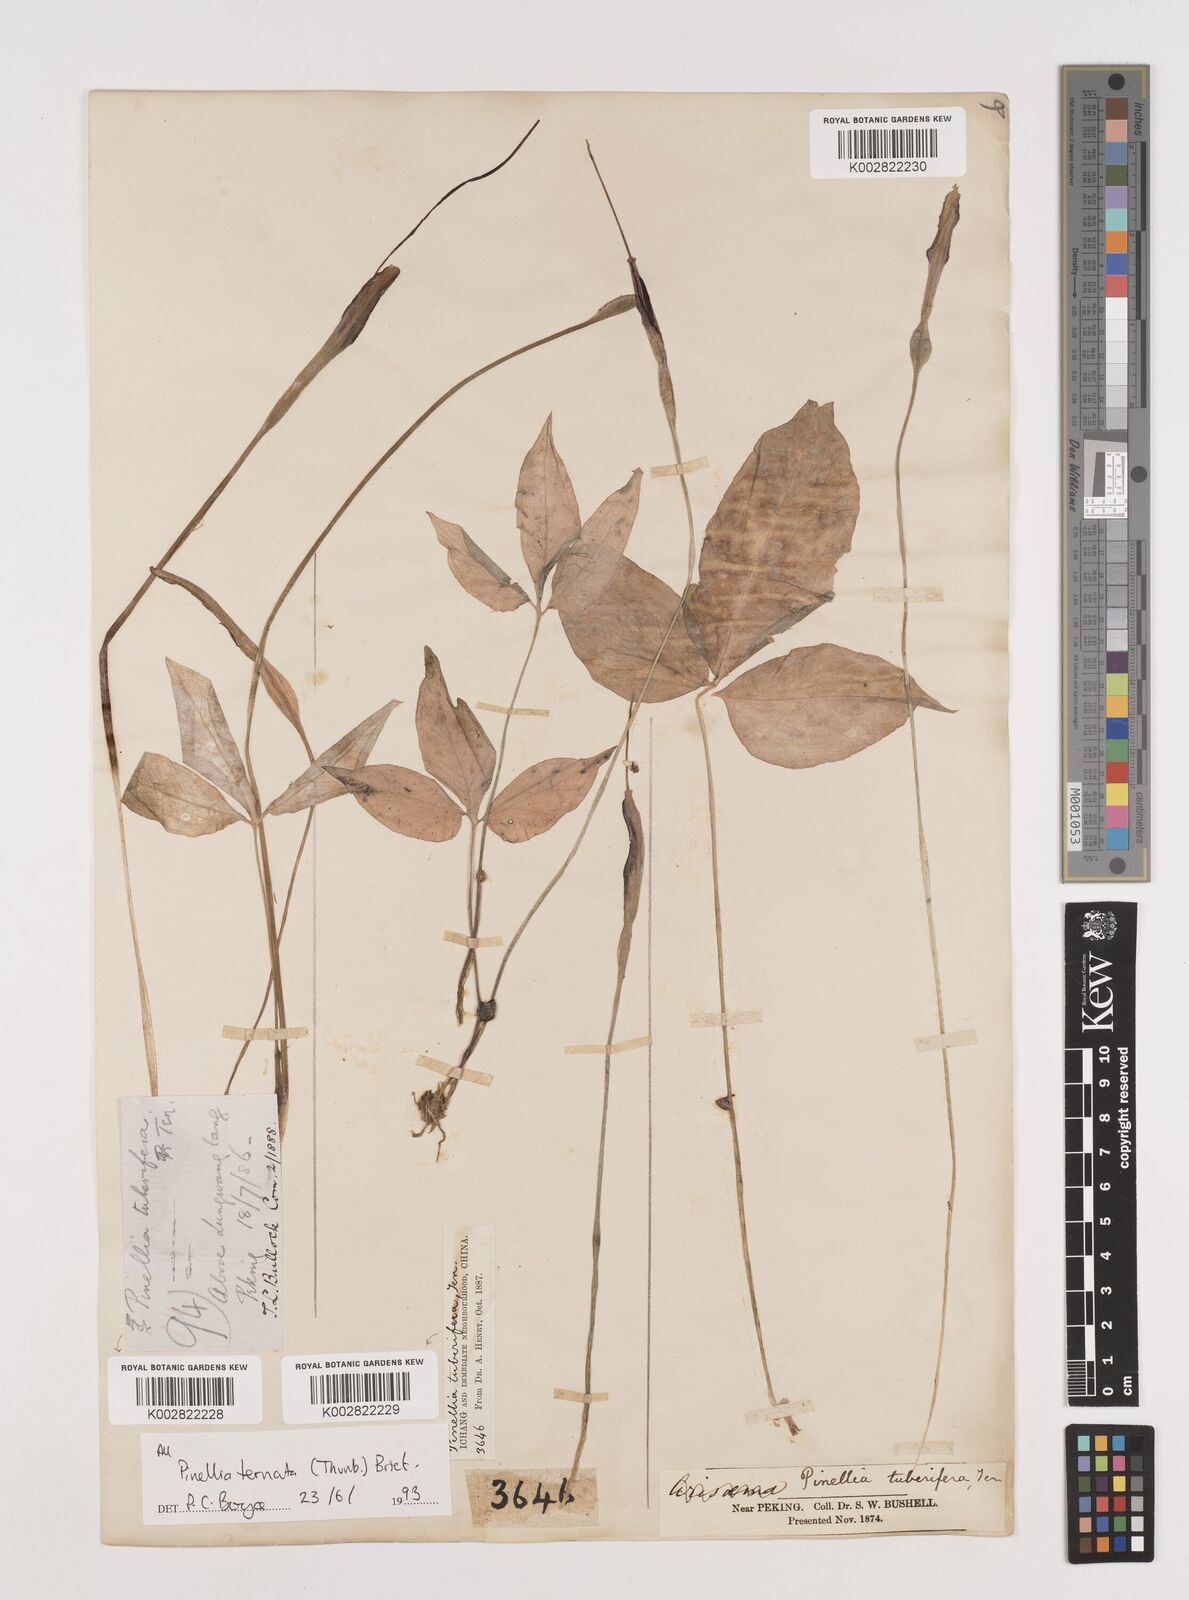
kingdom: Plantae
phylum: Tracheophyta
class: Liliopsida
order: Alismatales
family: Araceae
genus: Pinellia
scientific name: Pinellia ternata
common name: Pinellia
